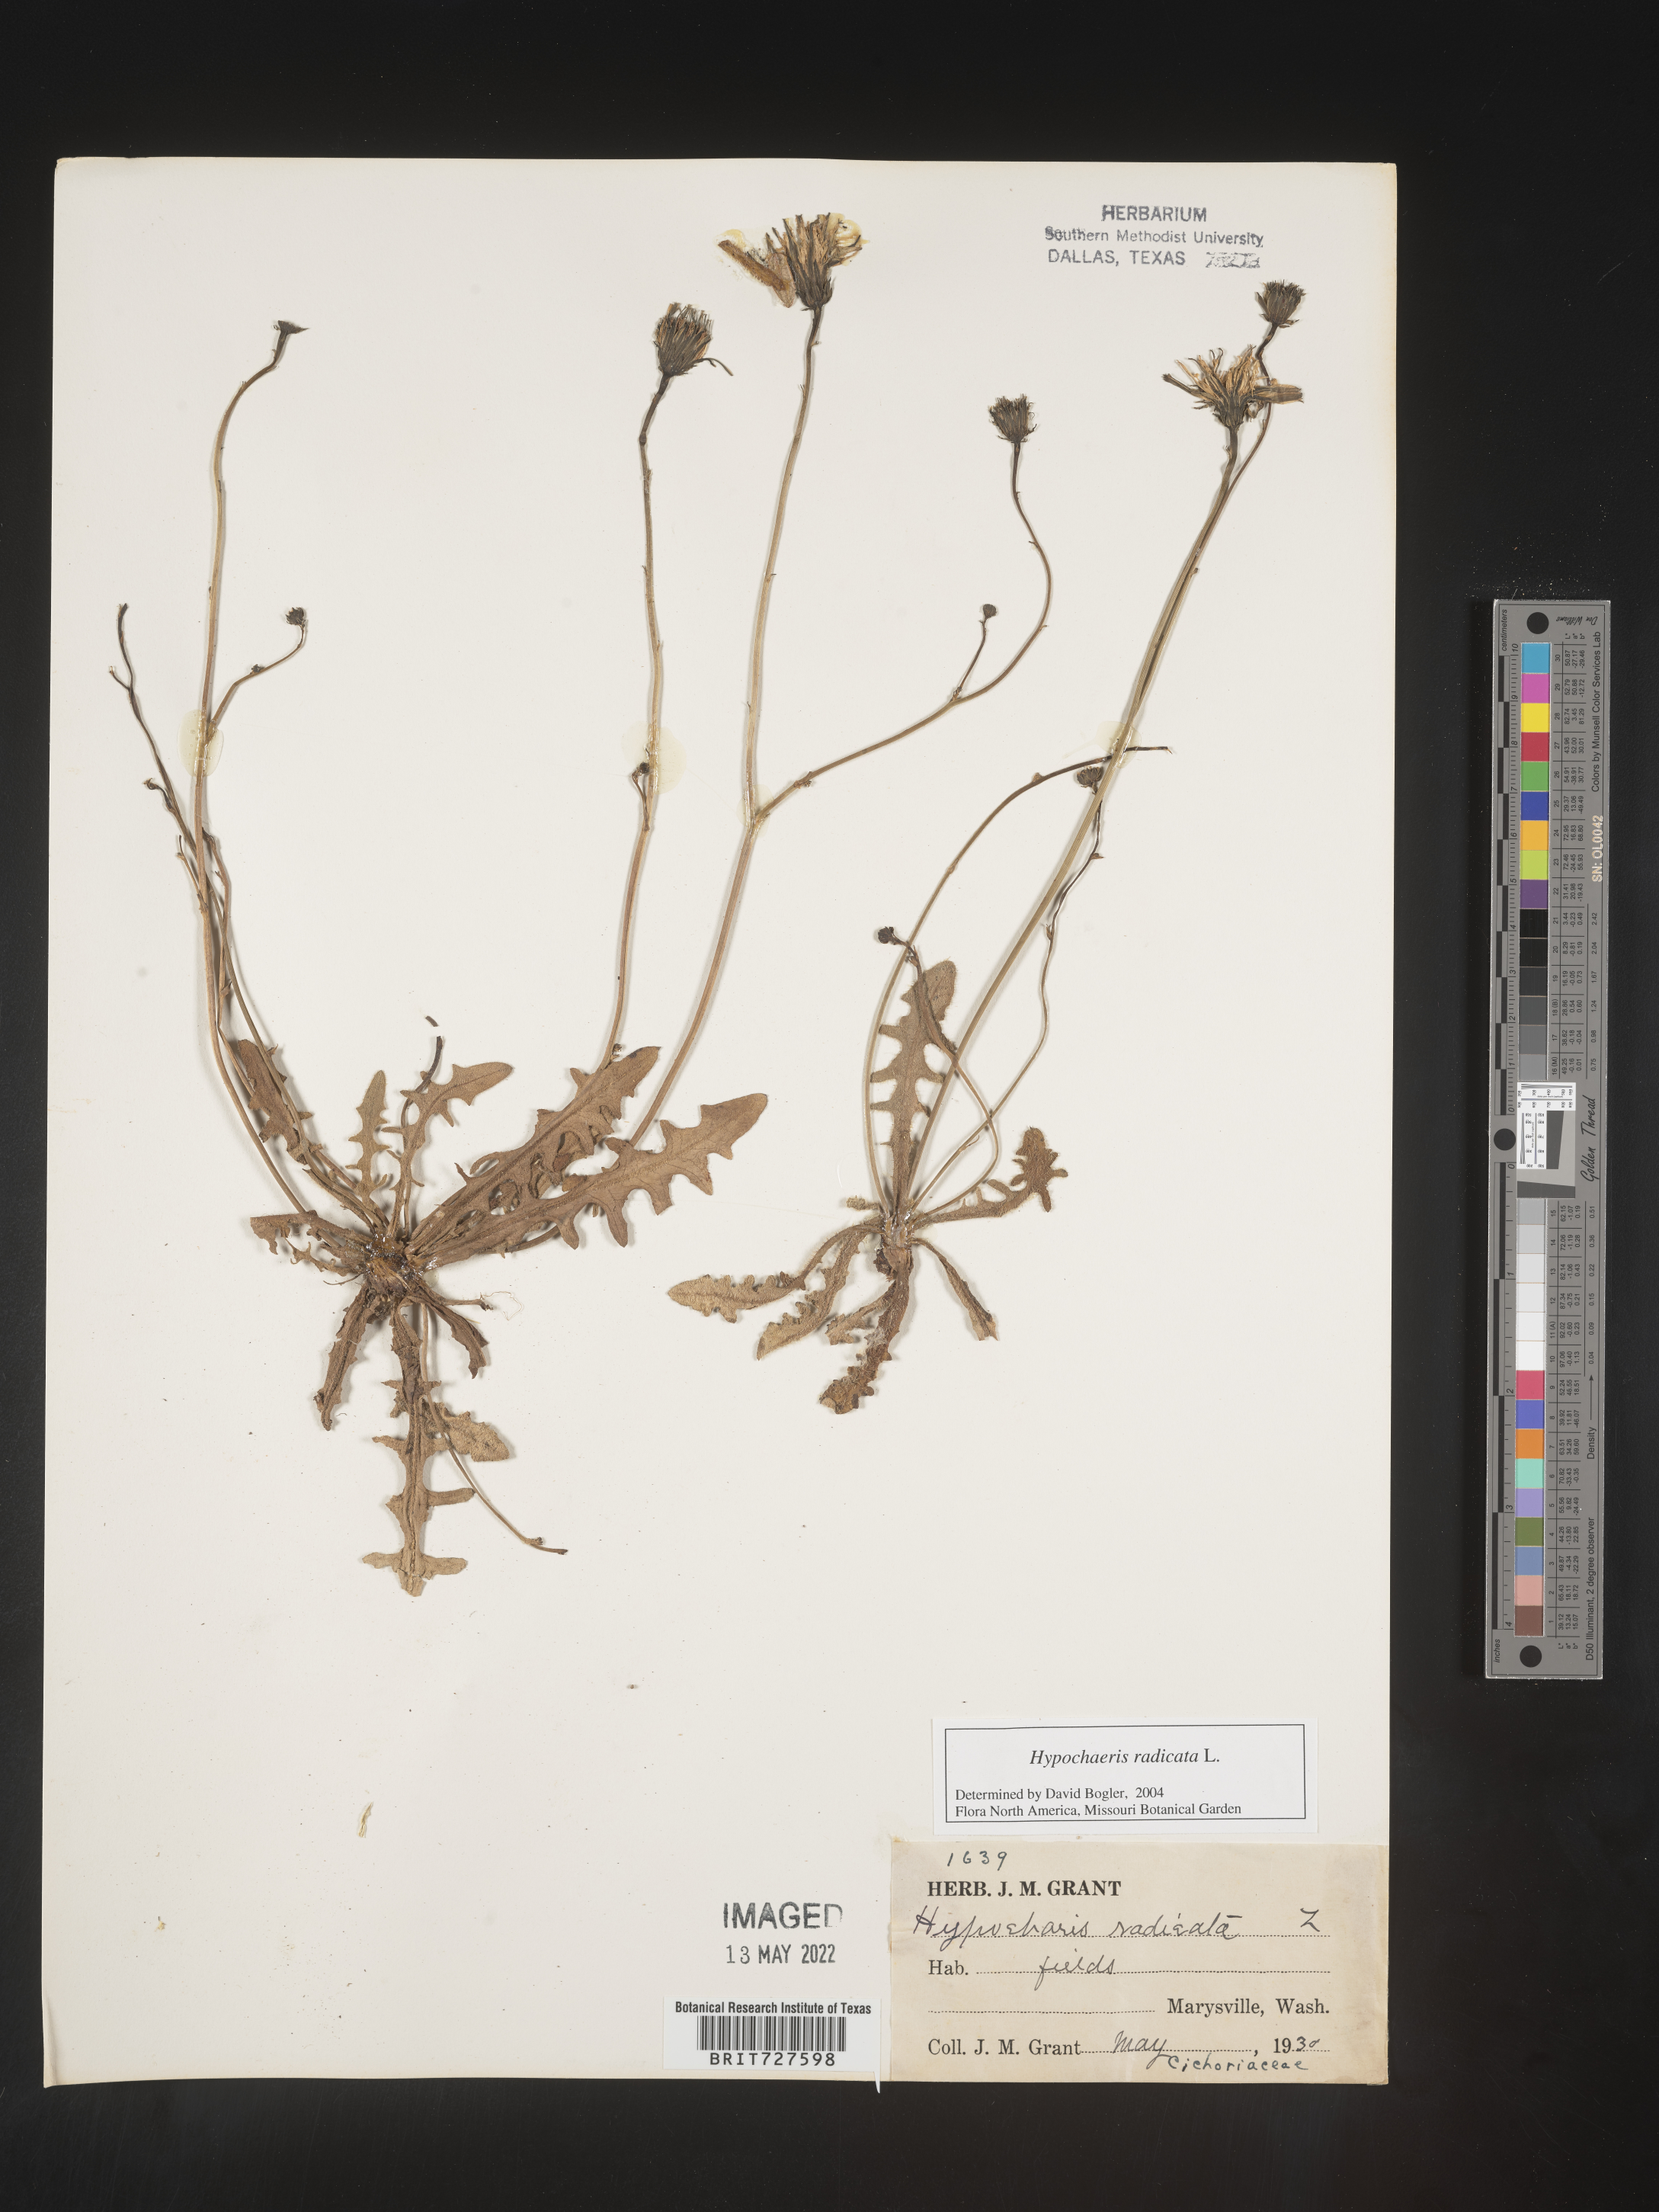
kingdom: Plantae
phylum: Tracheophyta
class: Magnoliopsida
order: Asterales
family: Asteraceae
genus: Hypochaeris
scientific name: Hypochaeris radicata
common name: Flatweed
